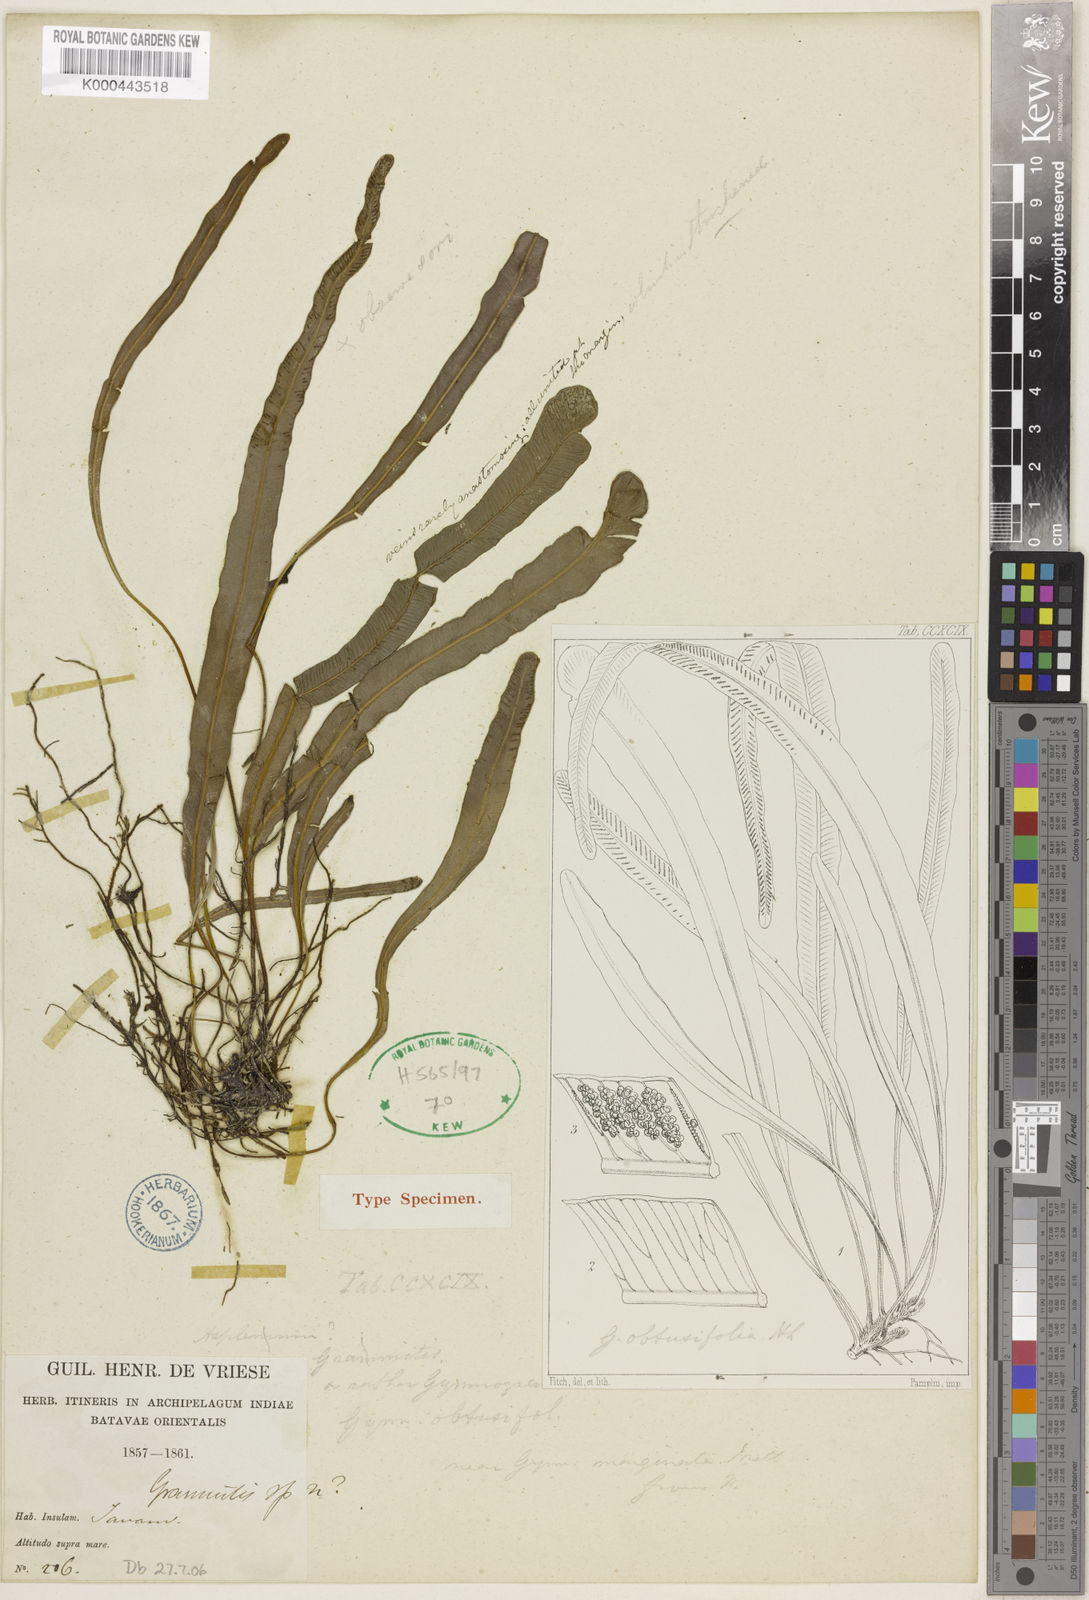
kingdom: Plantae
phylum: Tracheophyta
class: Polypodiopsida
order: Polypodiales
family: Pteridaceae
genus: Syngramma
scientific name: Syngramma coriacea
